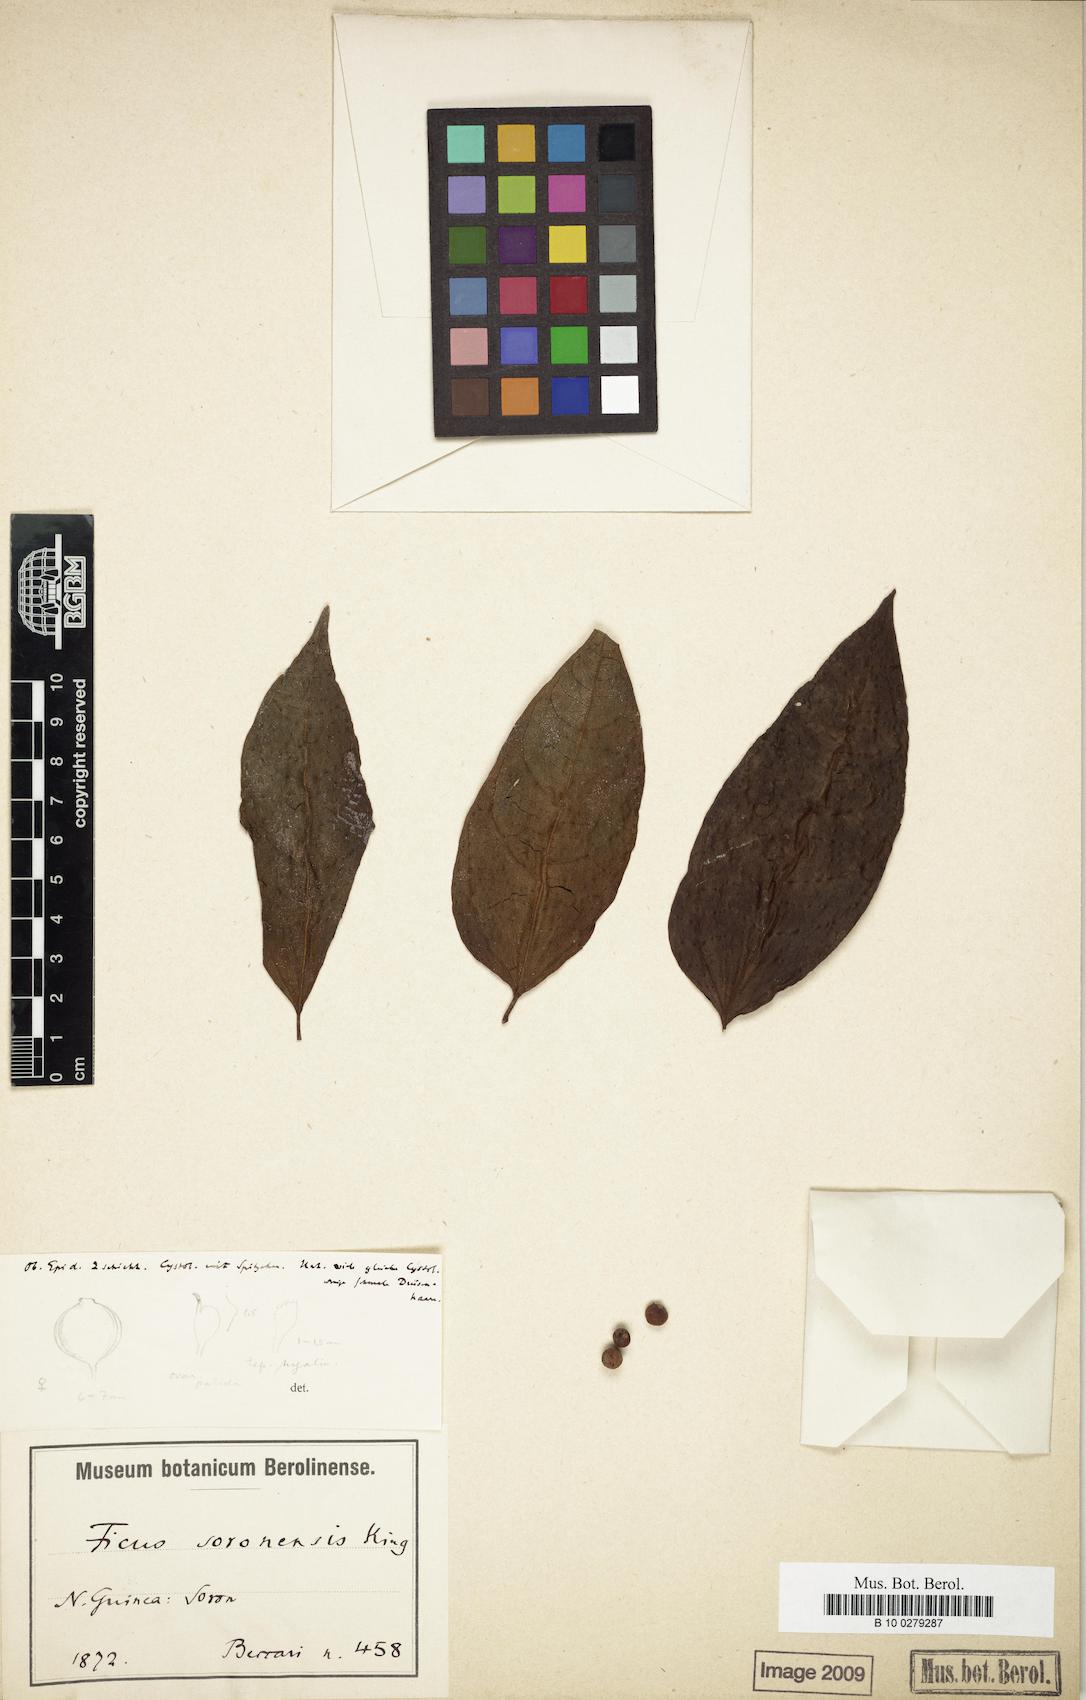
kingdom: Plantae
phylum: Tracheophyta
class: Magnoliopsida
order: Rosales
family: Moraceae
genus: Ficus
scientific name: Ficus ampelos
